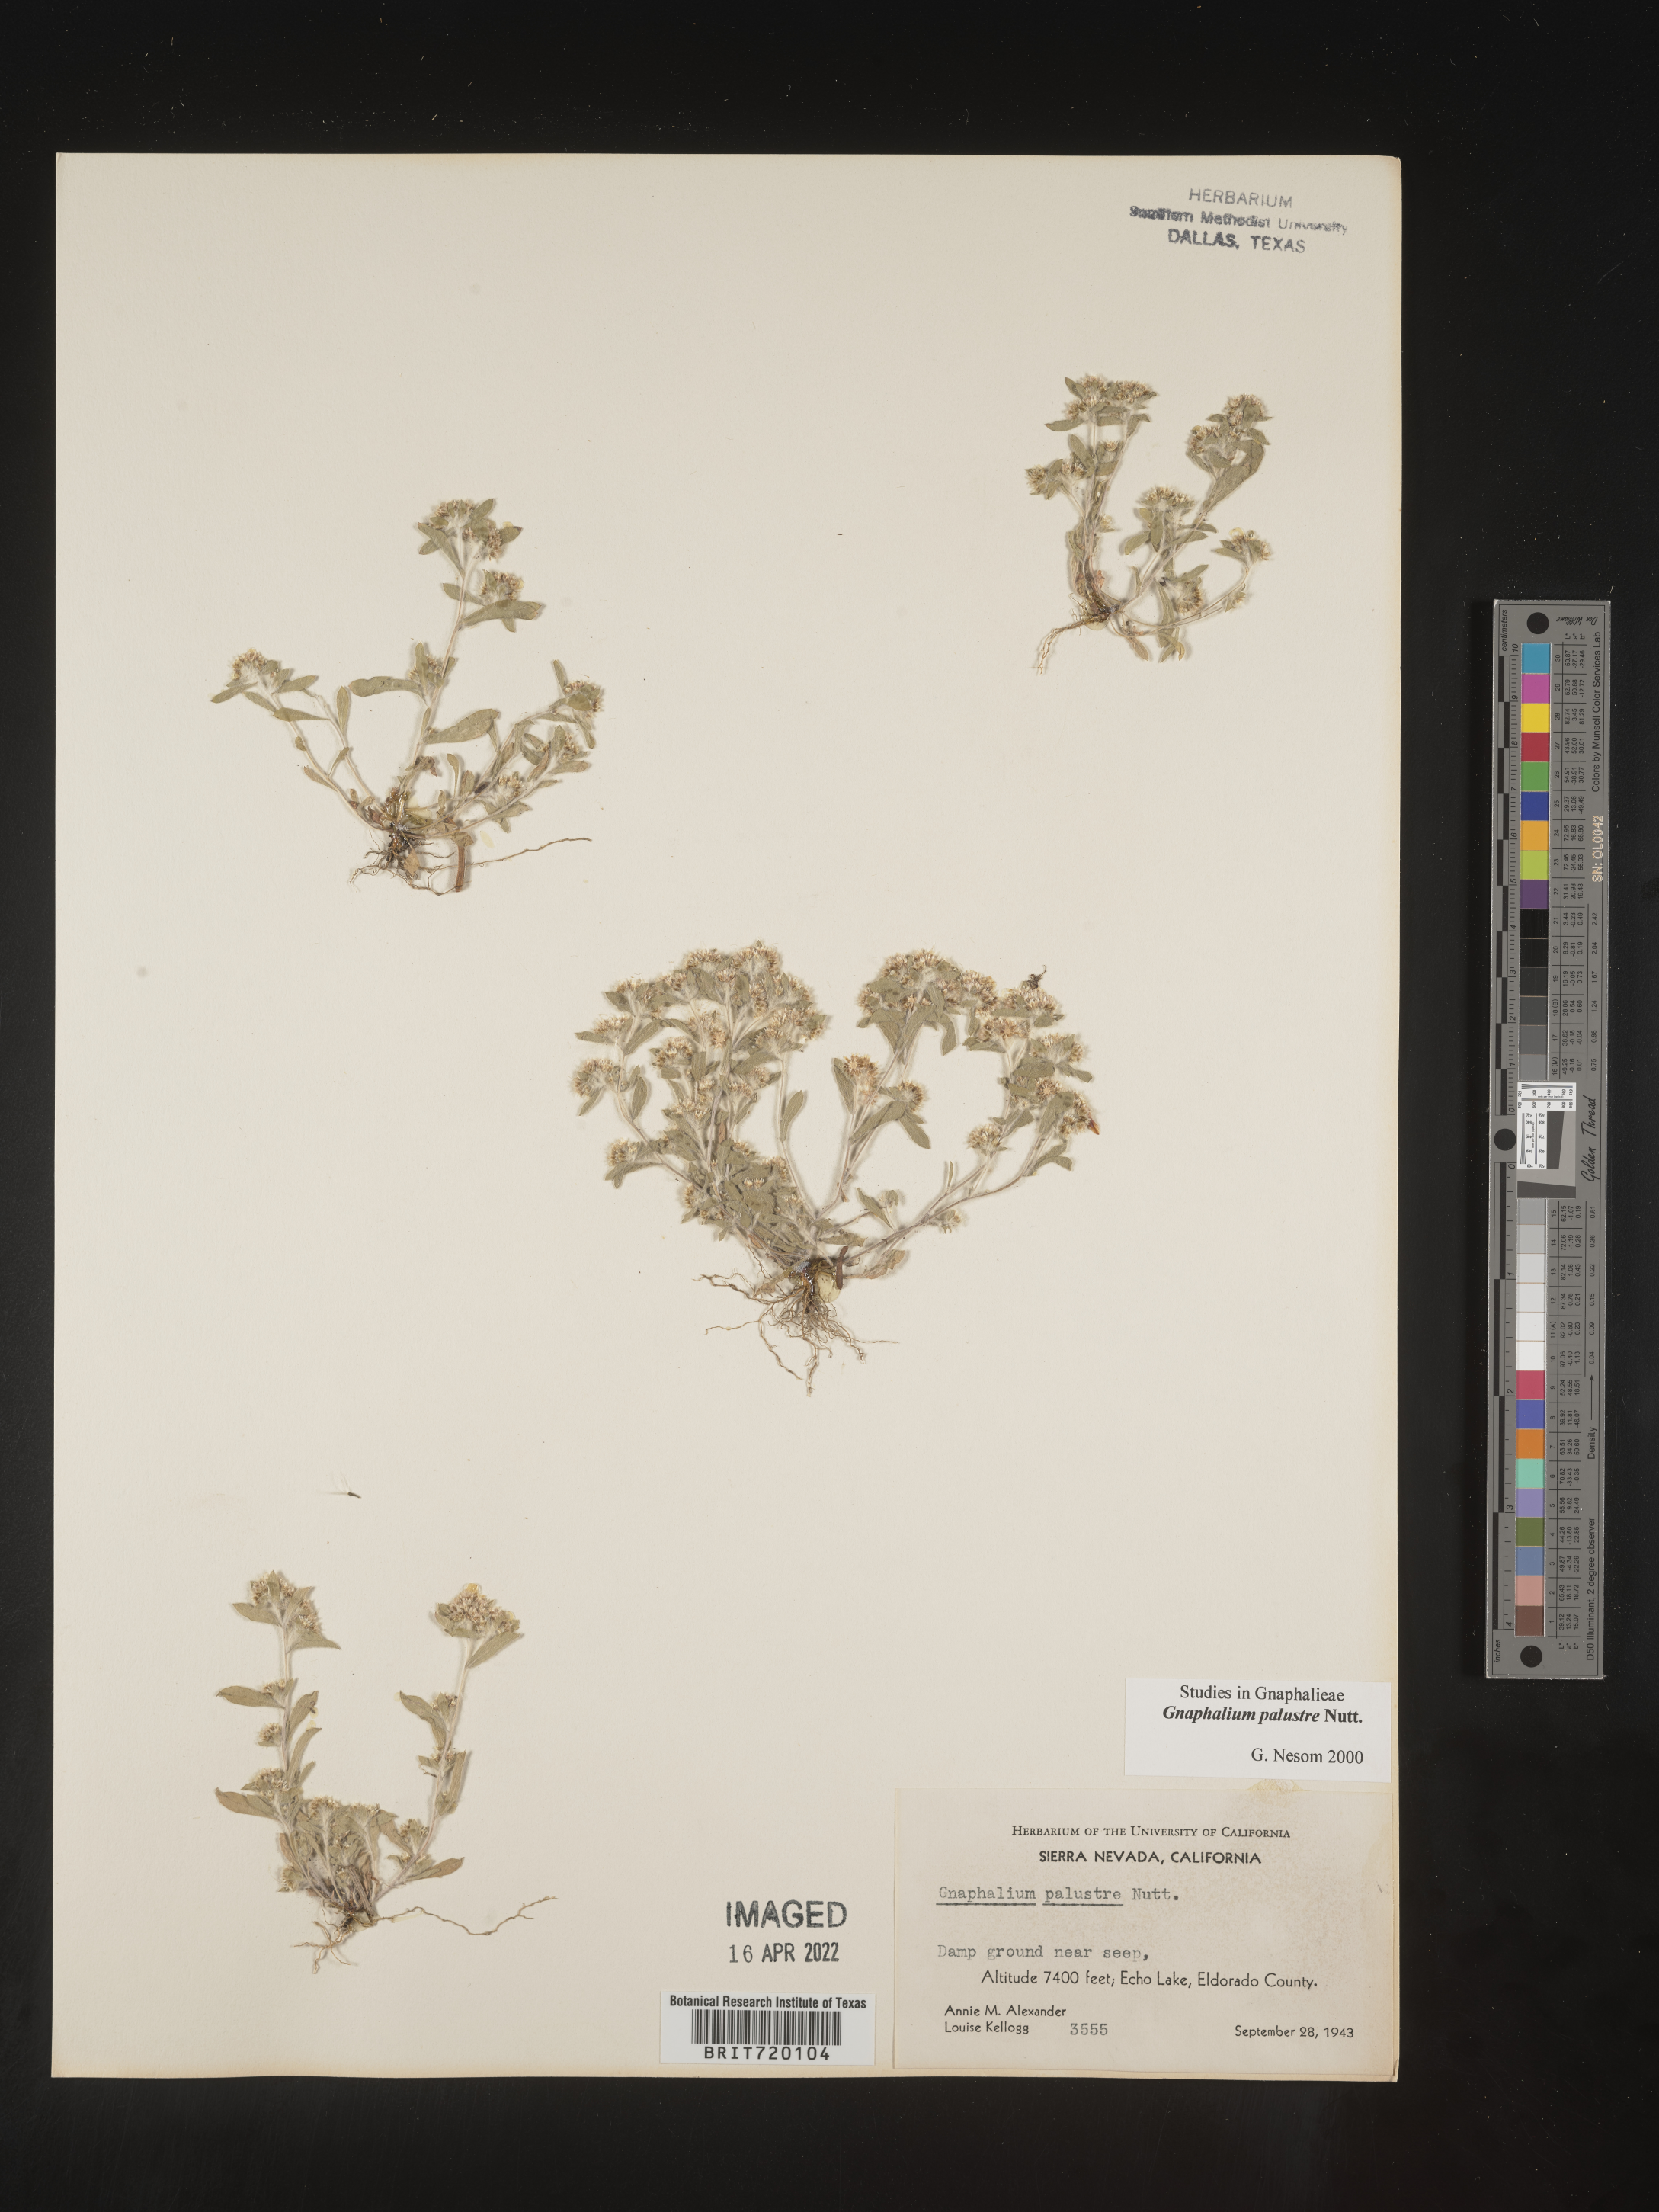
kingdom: Plantae
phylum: Tracheophyta
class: Magnoliopsida
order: Asterales
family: Asteraceae
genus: Gnaphalium
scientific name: Gnaphalium palustre
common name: Western marsh cudweed
